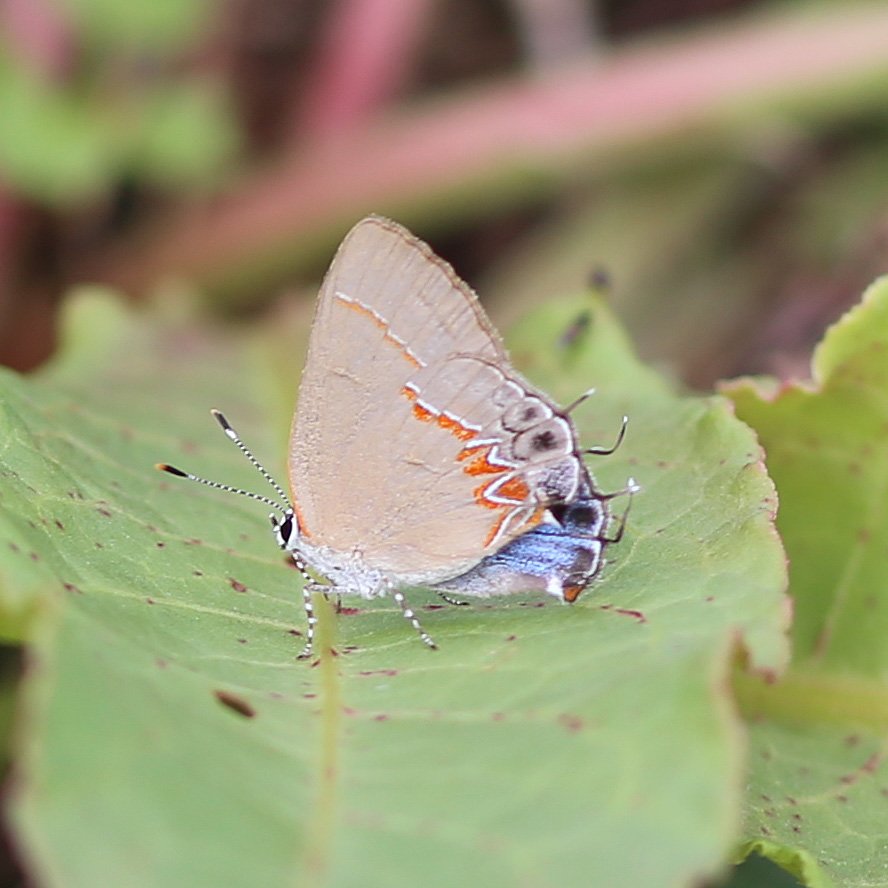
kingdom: Animalia
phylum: Arthropoda
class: Insecta
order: Lepidoptera
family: Lycaenidae
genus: Calycopis
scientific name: Calycopis isobeon
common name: Dusky-blue Groundstreak
